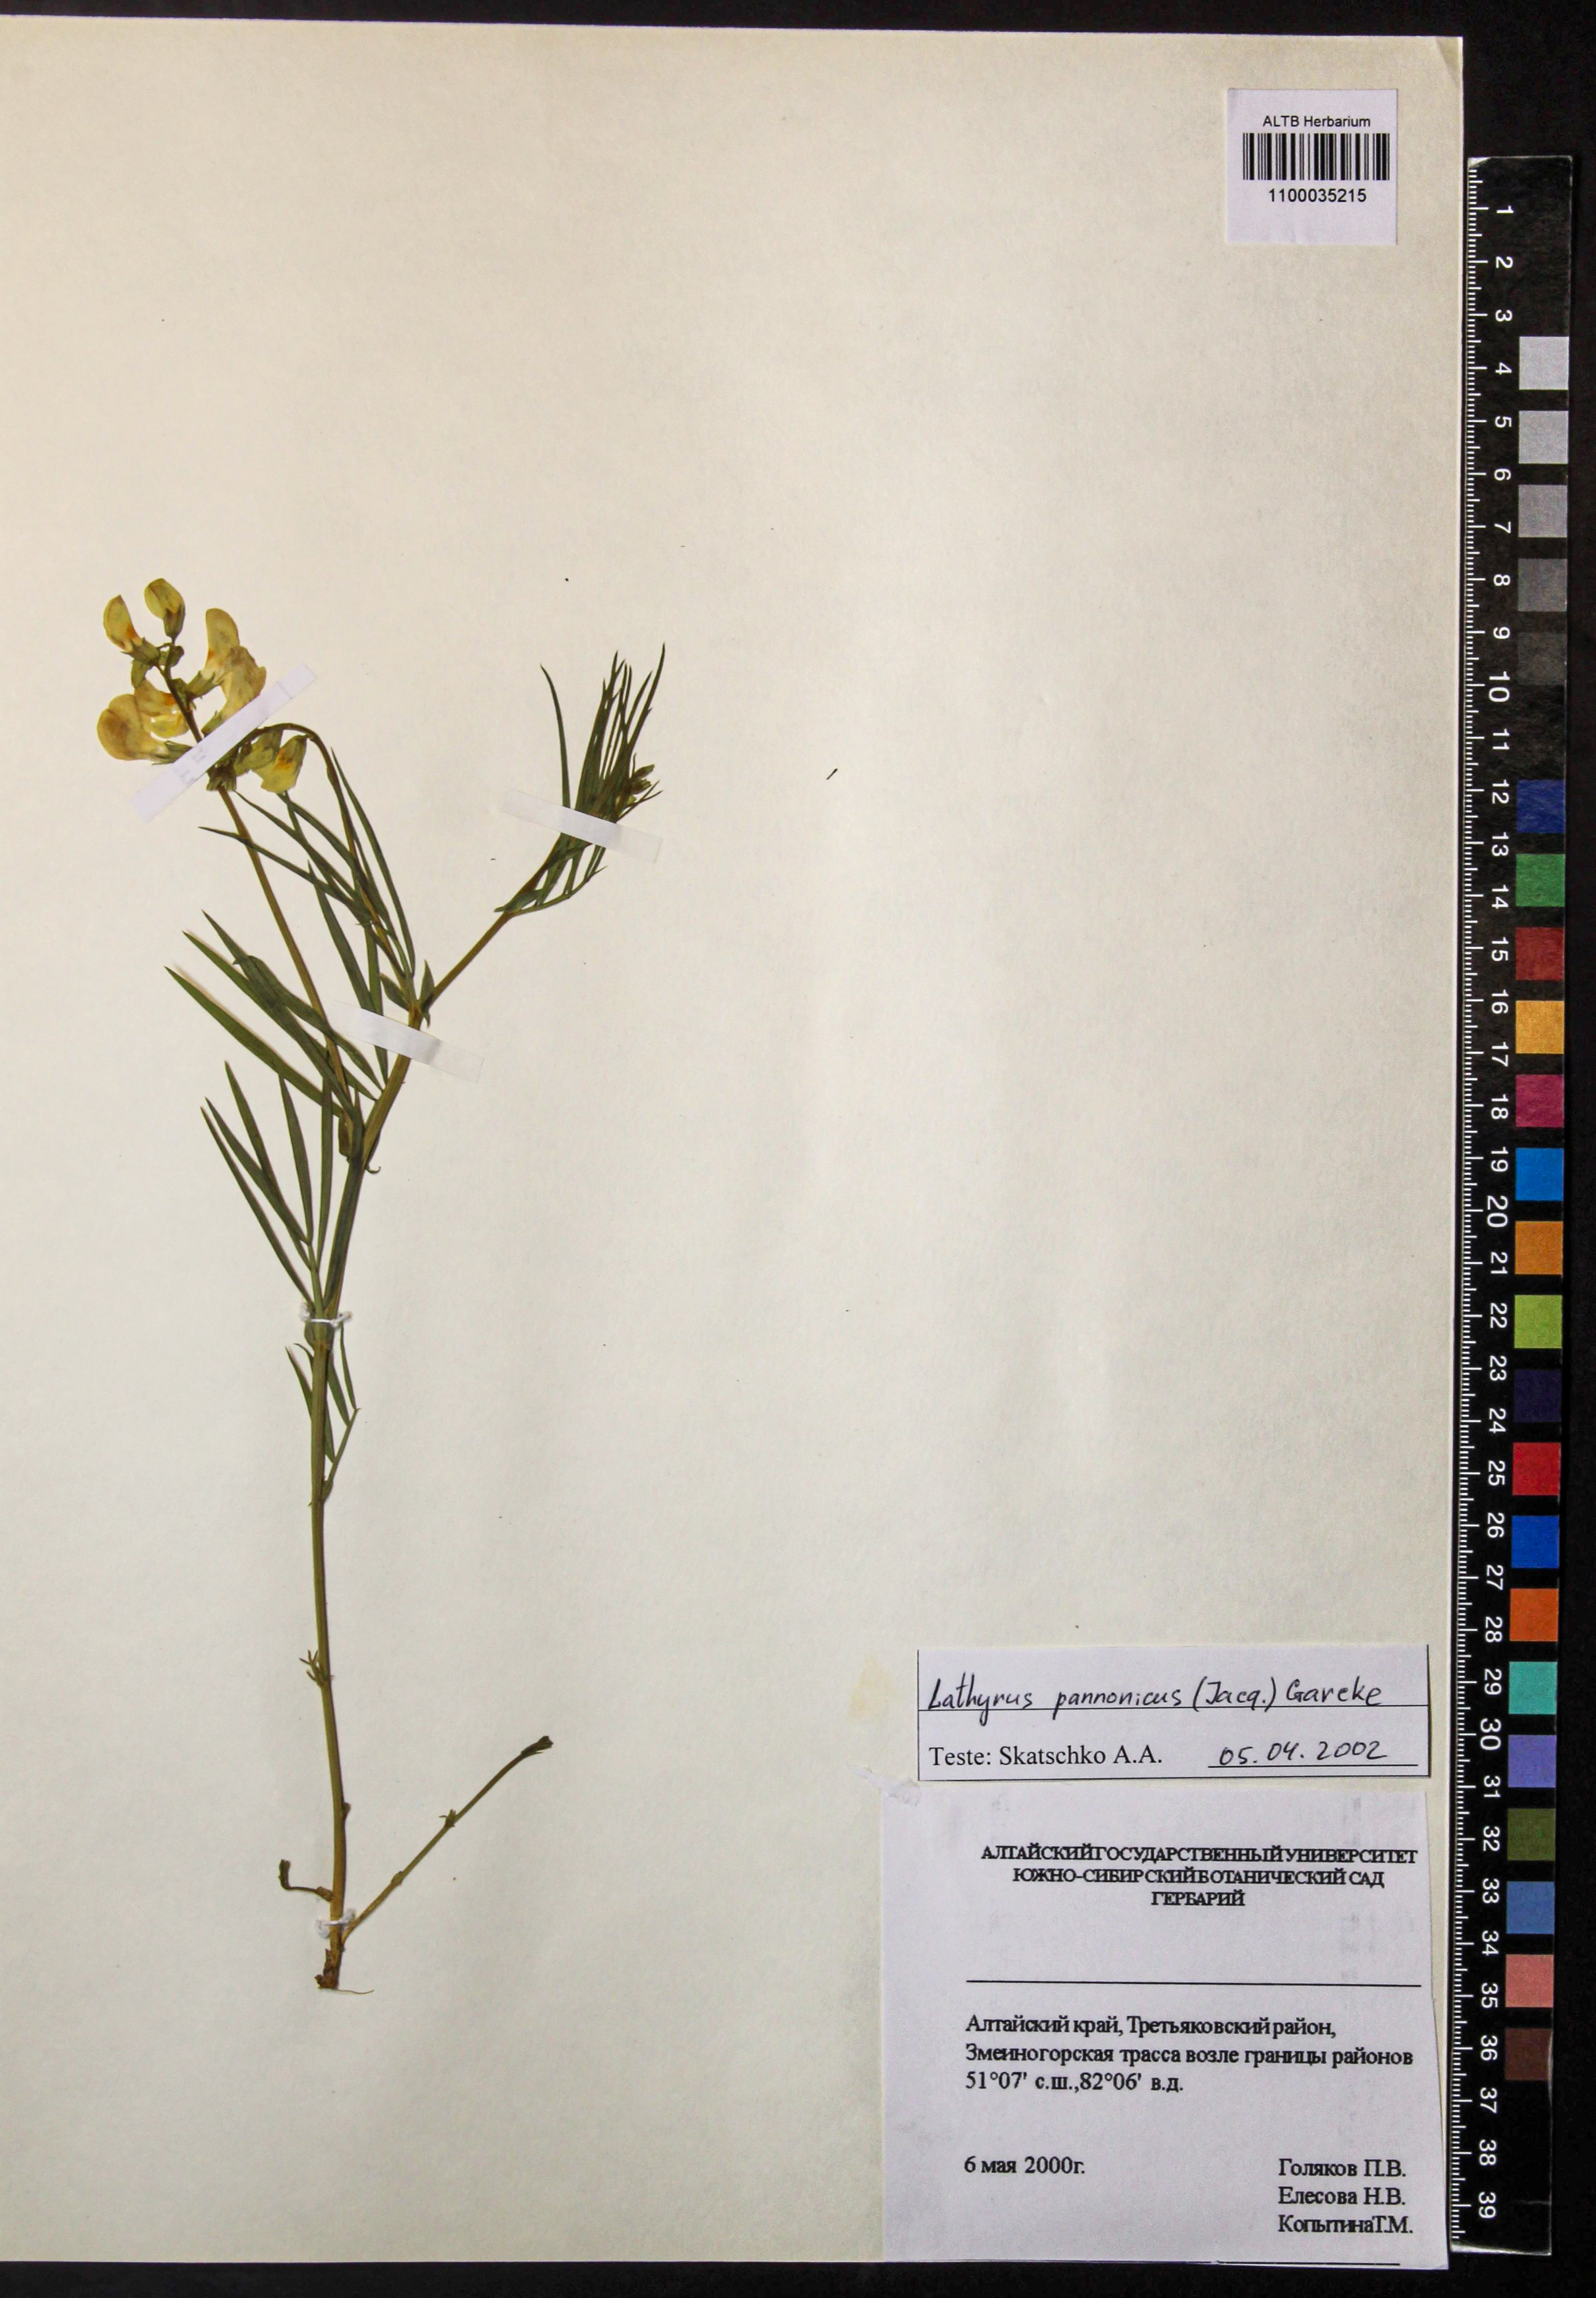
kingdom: Plantae
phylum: Tracheophyta
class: Magnoliopsida
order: Fabales
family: Fabaceae
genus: Lathyrus
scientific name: Lathyrus pannonicus
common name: Pea
